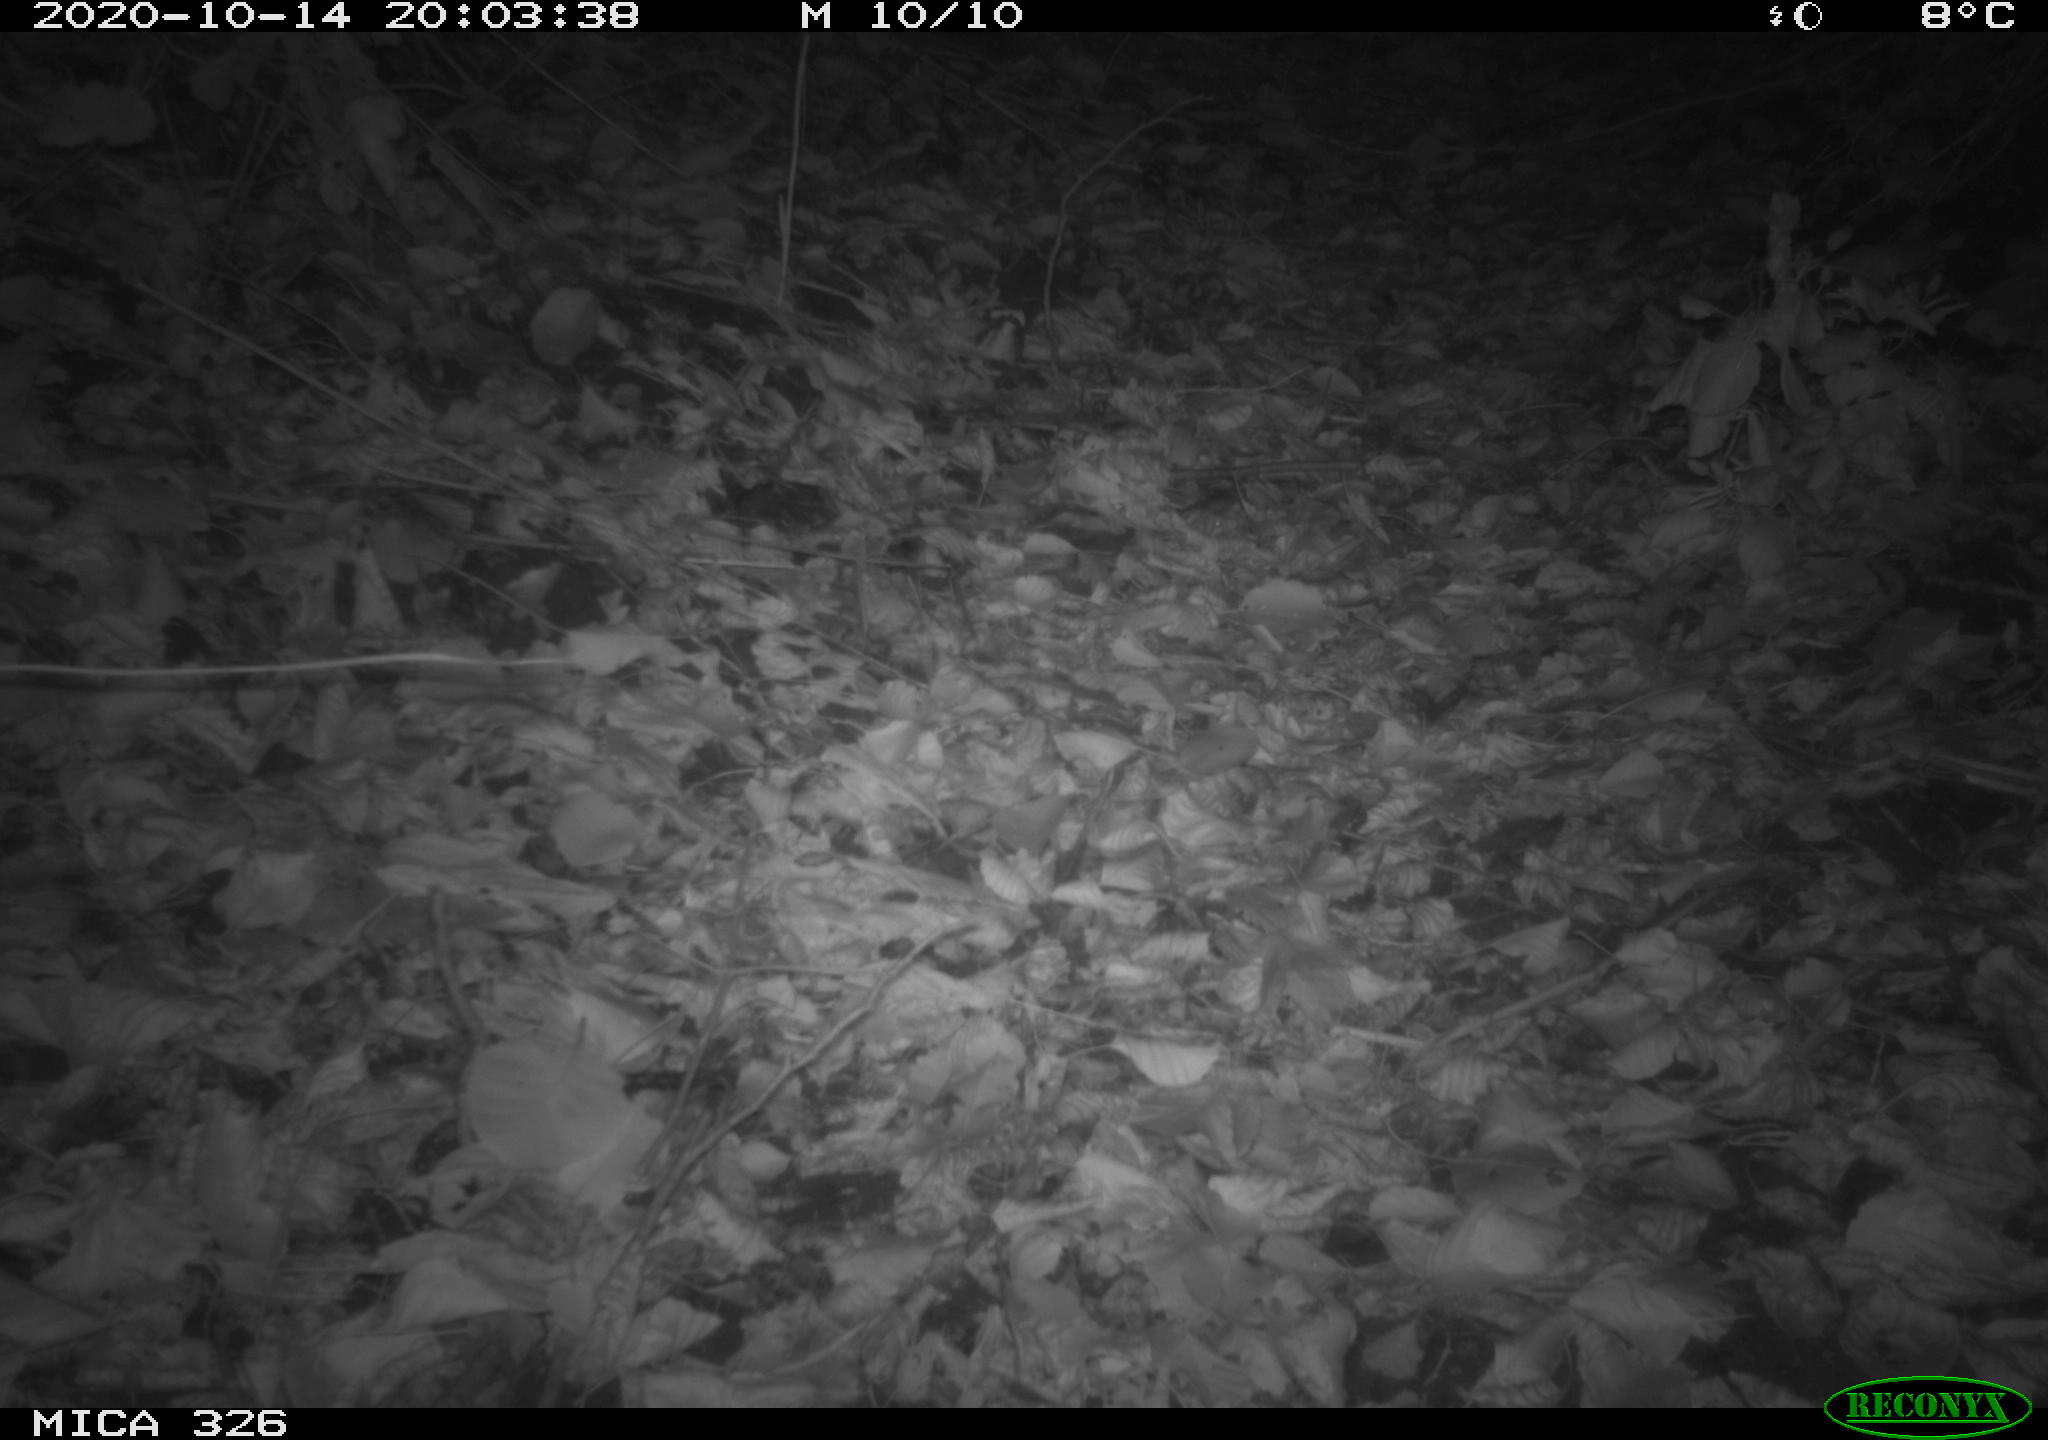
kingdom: Animalia
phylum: Chordata
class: Mammalia
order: Carnivora
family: Mustelidae
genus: Lutra
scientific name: Lutra lutra
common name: European otter
